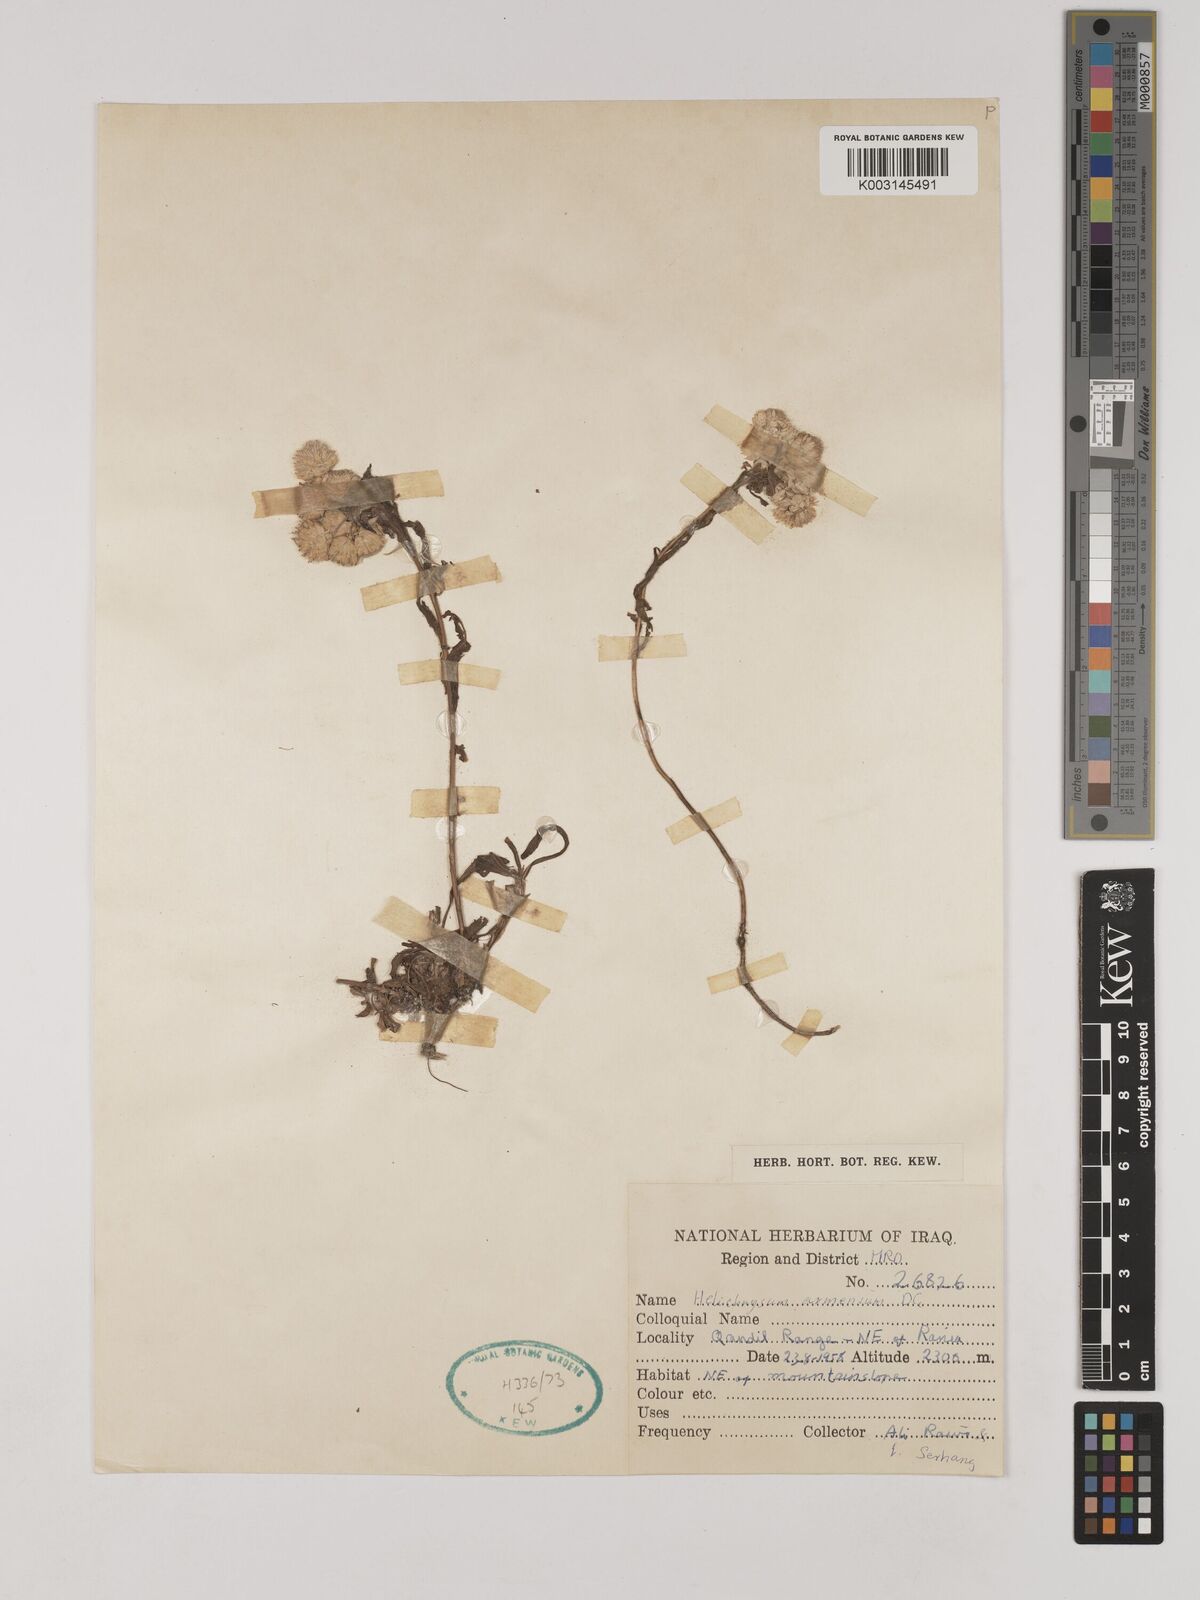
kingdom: Plantae
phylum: Tracheophyta
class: Magnoliopsida
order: Asterales
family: Asteraceae
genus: Helichrysum
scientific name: Helichrysum armenium
